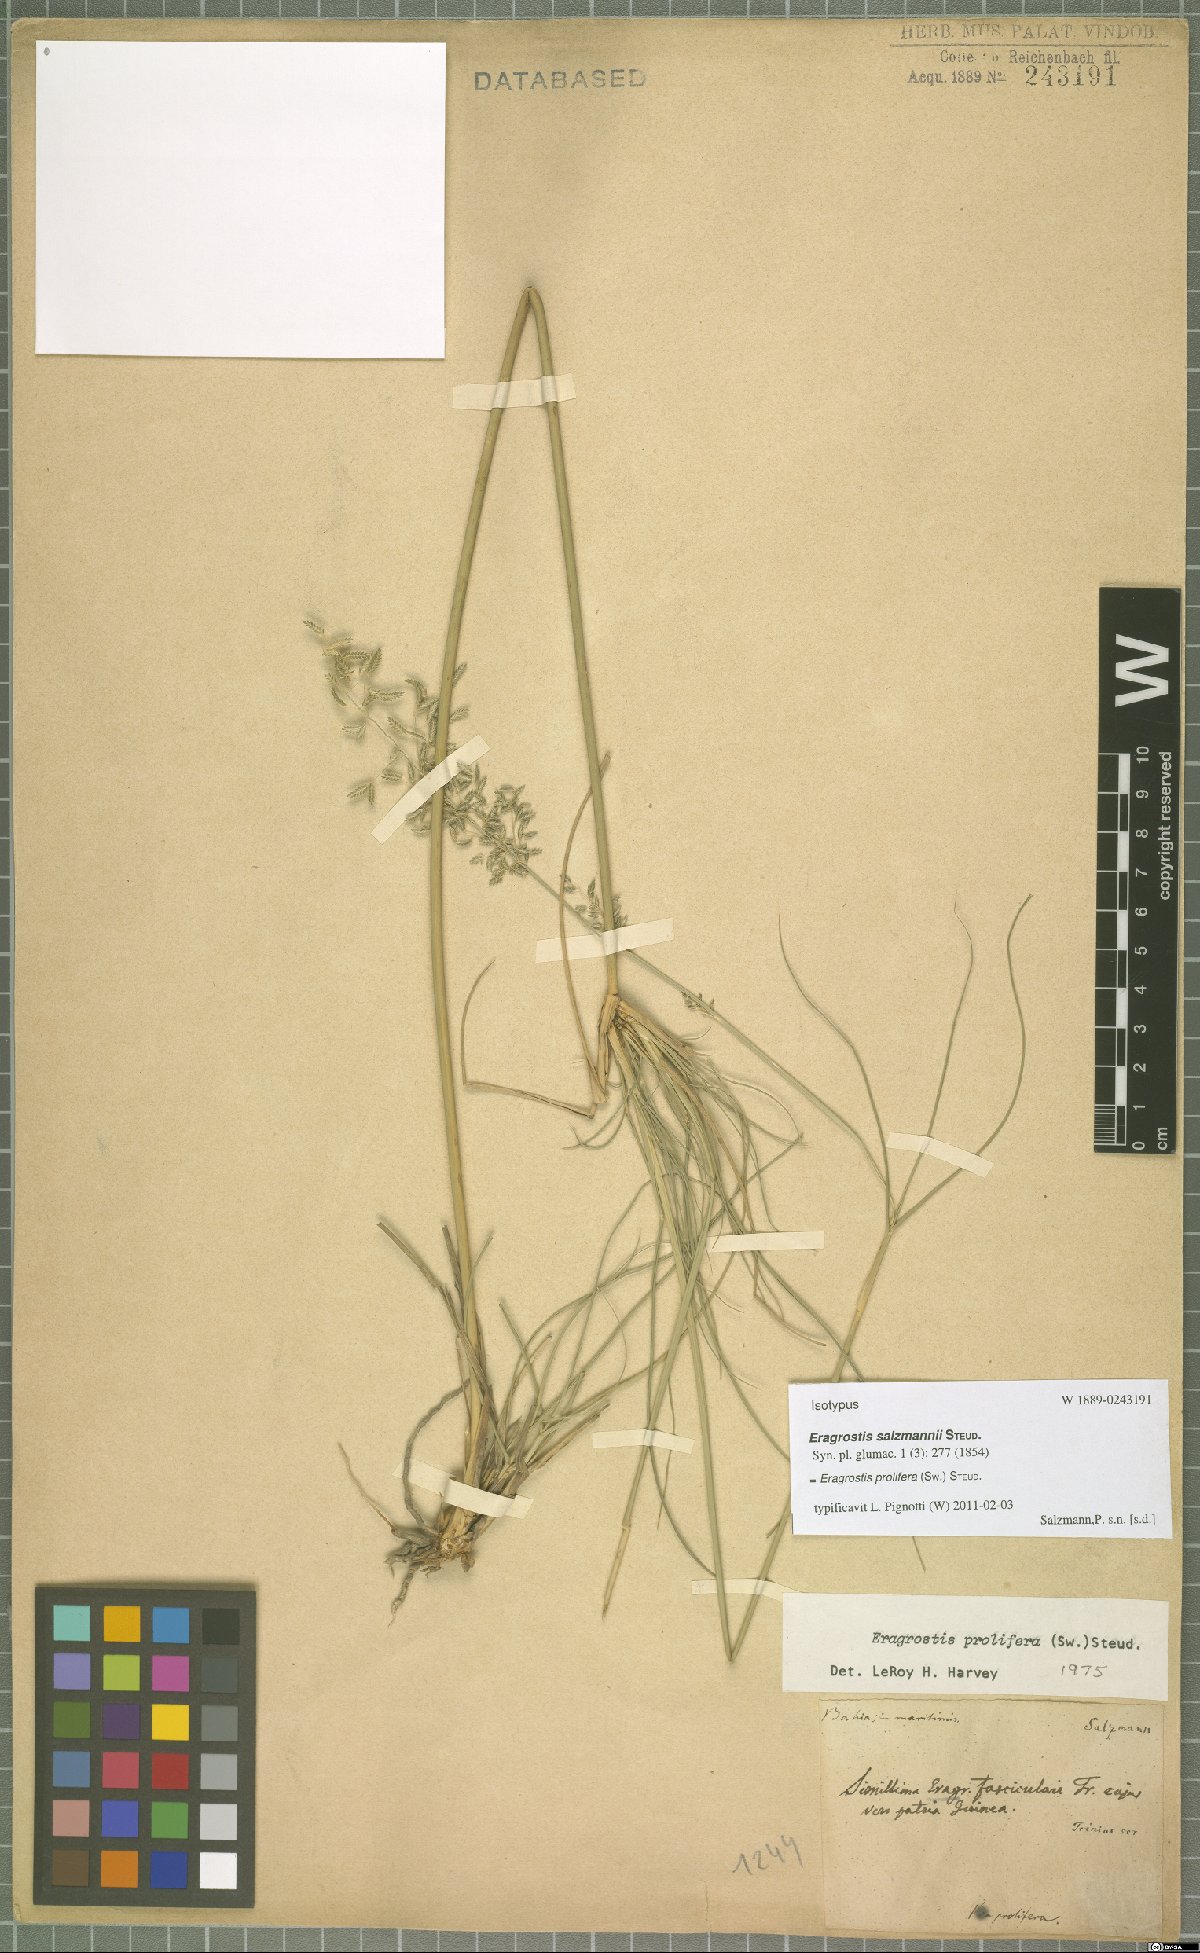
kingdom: Plantae
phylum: Tracheophyta
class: Liliopsida
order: Poales
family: Poaceae
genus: Eragrostis
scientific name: Eragrostis prolifera
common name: Dominican lovegrass
